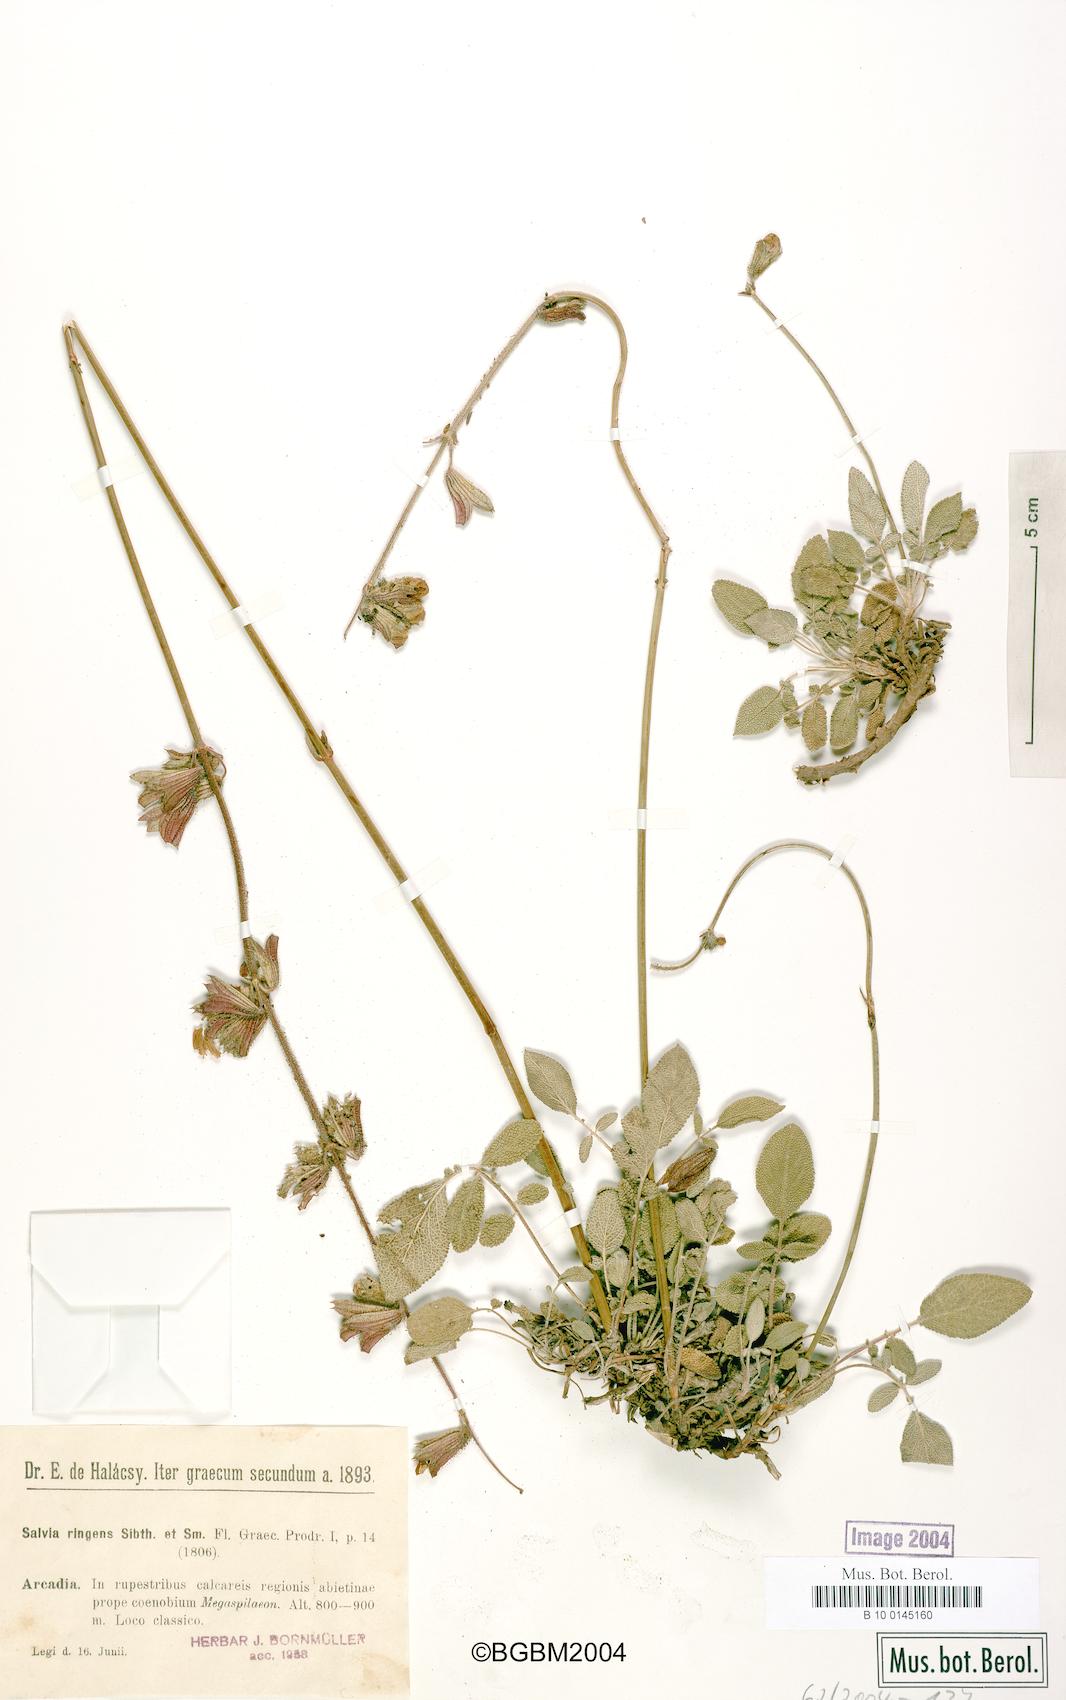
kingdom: Plantae
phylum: Tracheophyta
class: Magnoliopsida
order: Lamiales
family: Lamiaceae
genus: Salvia
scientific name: Salvia ringens
